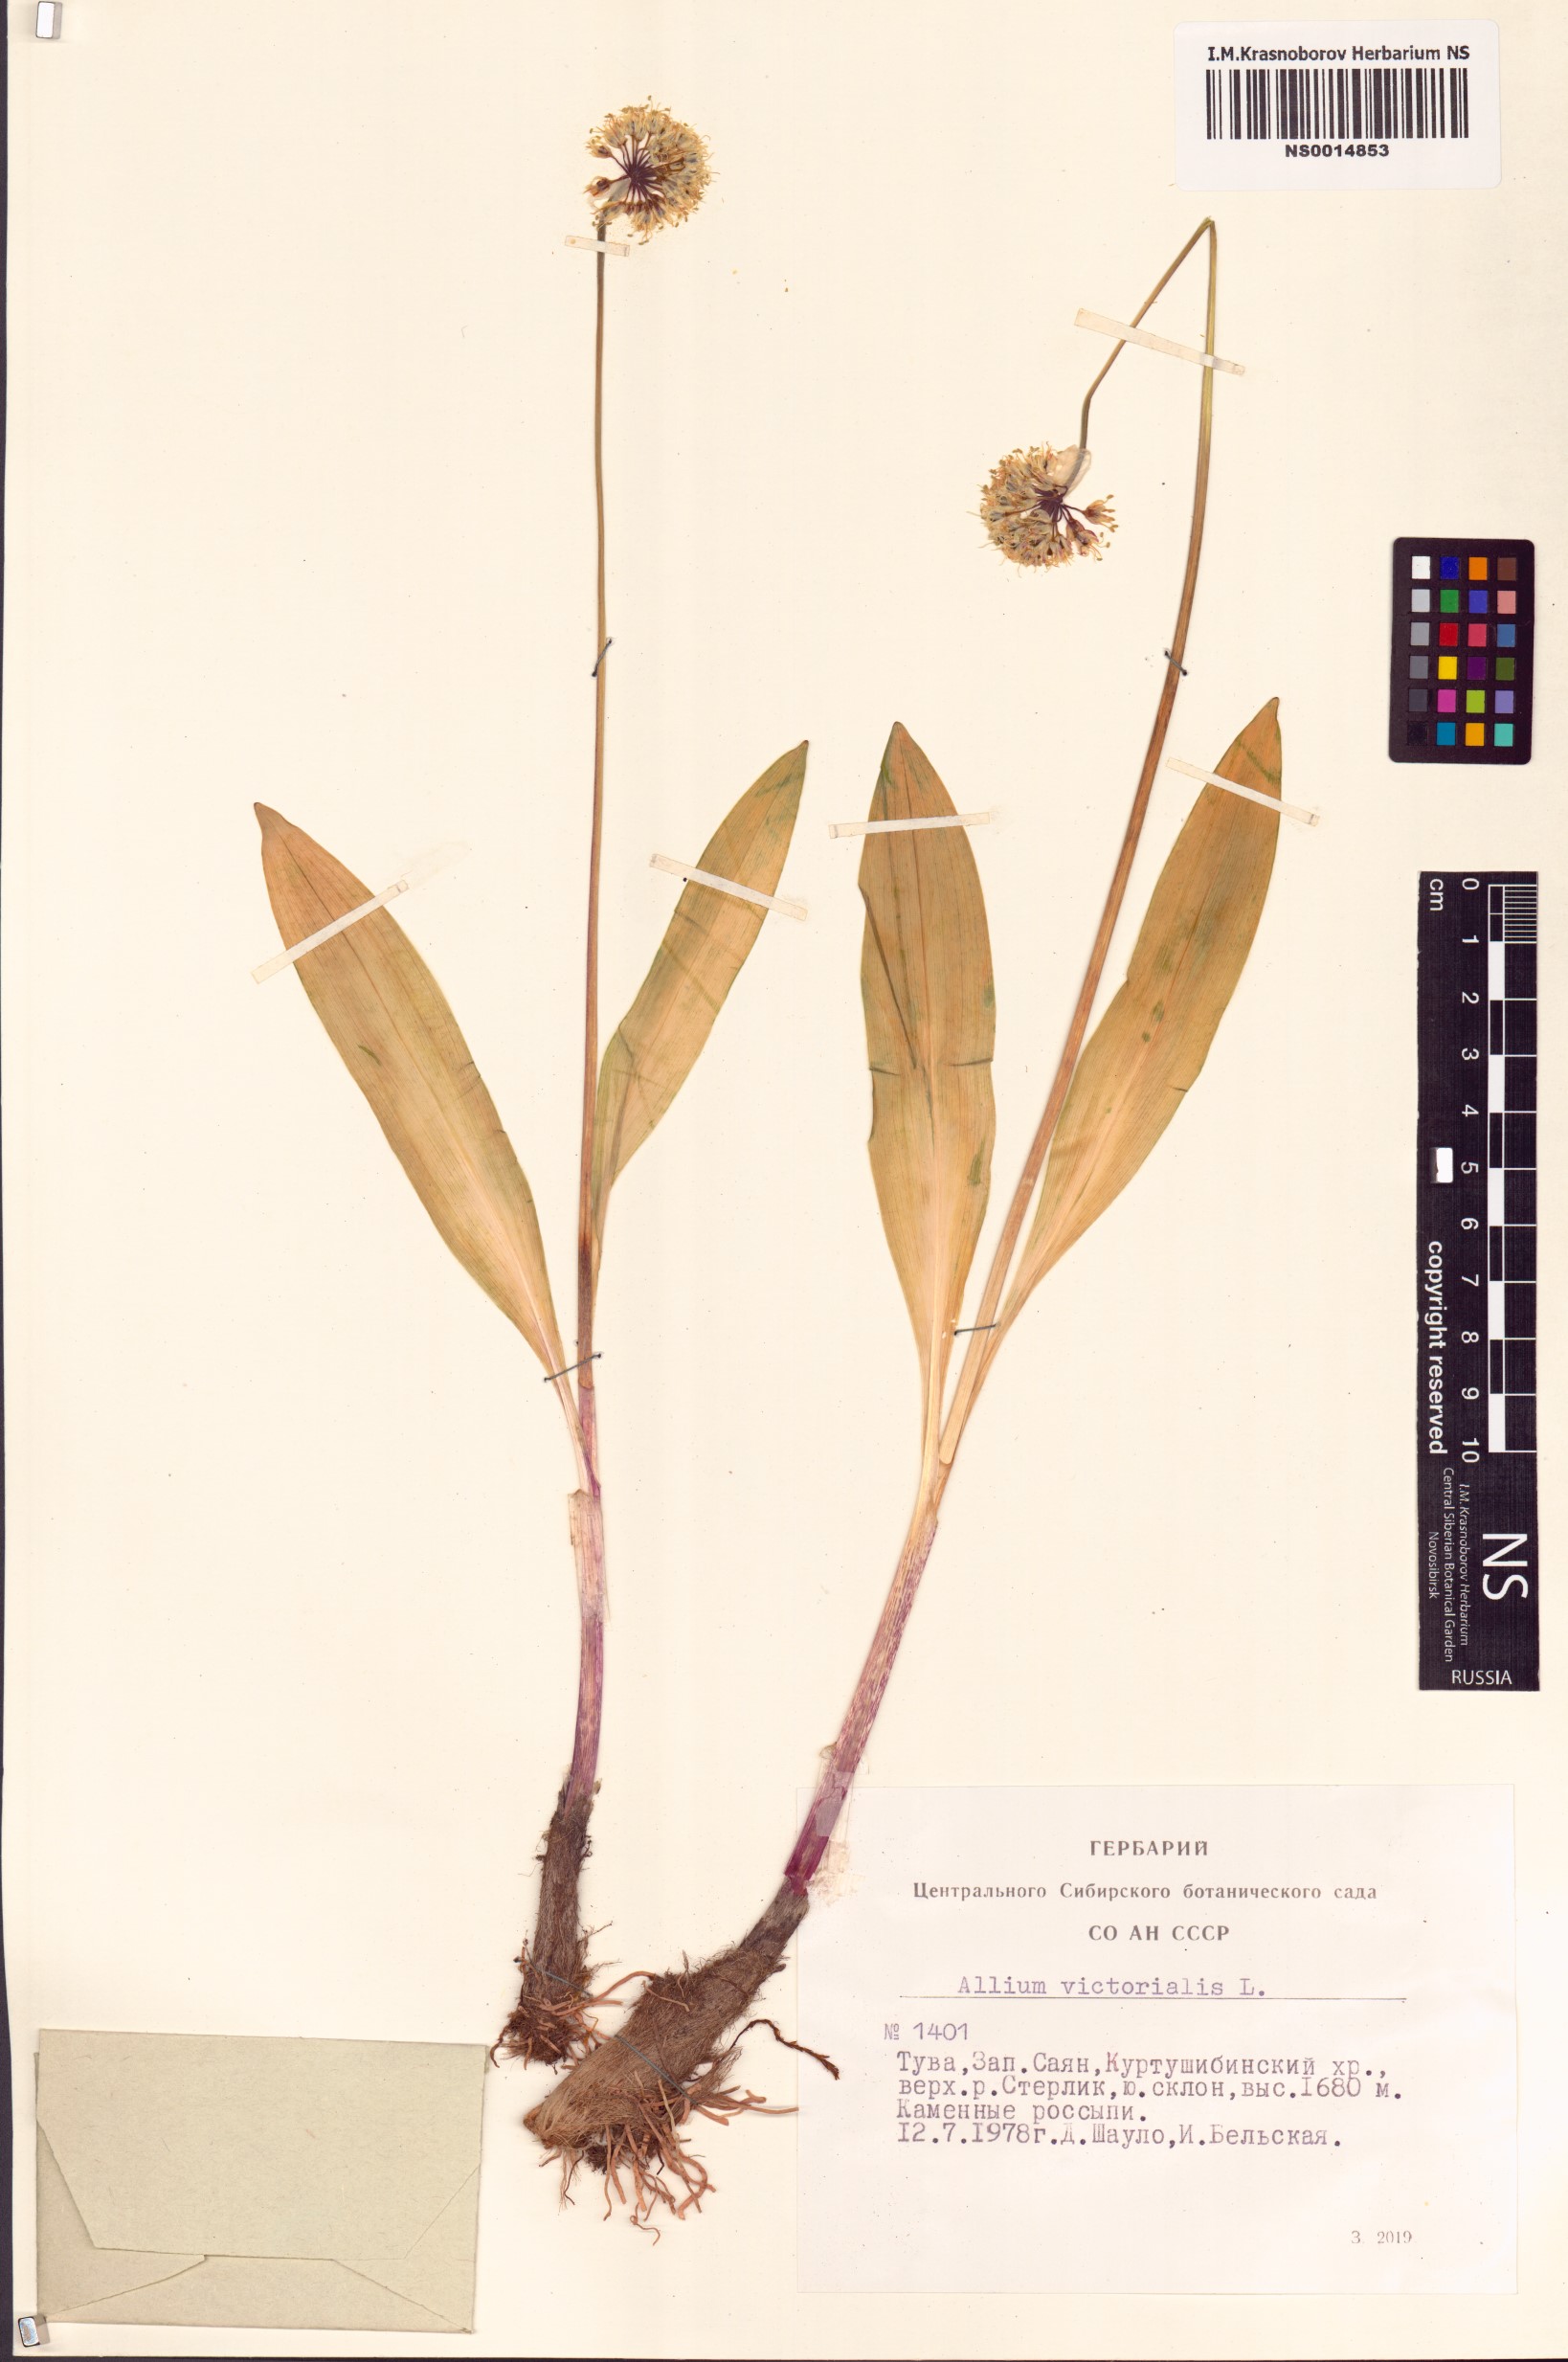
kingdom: Plantae
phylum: Tracheophyta
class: Liliopsida
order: Asparagales
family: Amaryllidaceae
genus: Allium
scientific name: Allium victorialis
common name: Alpine leek
